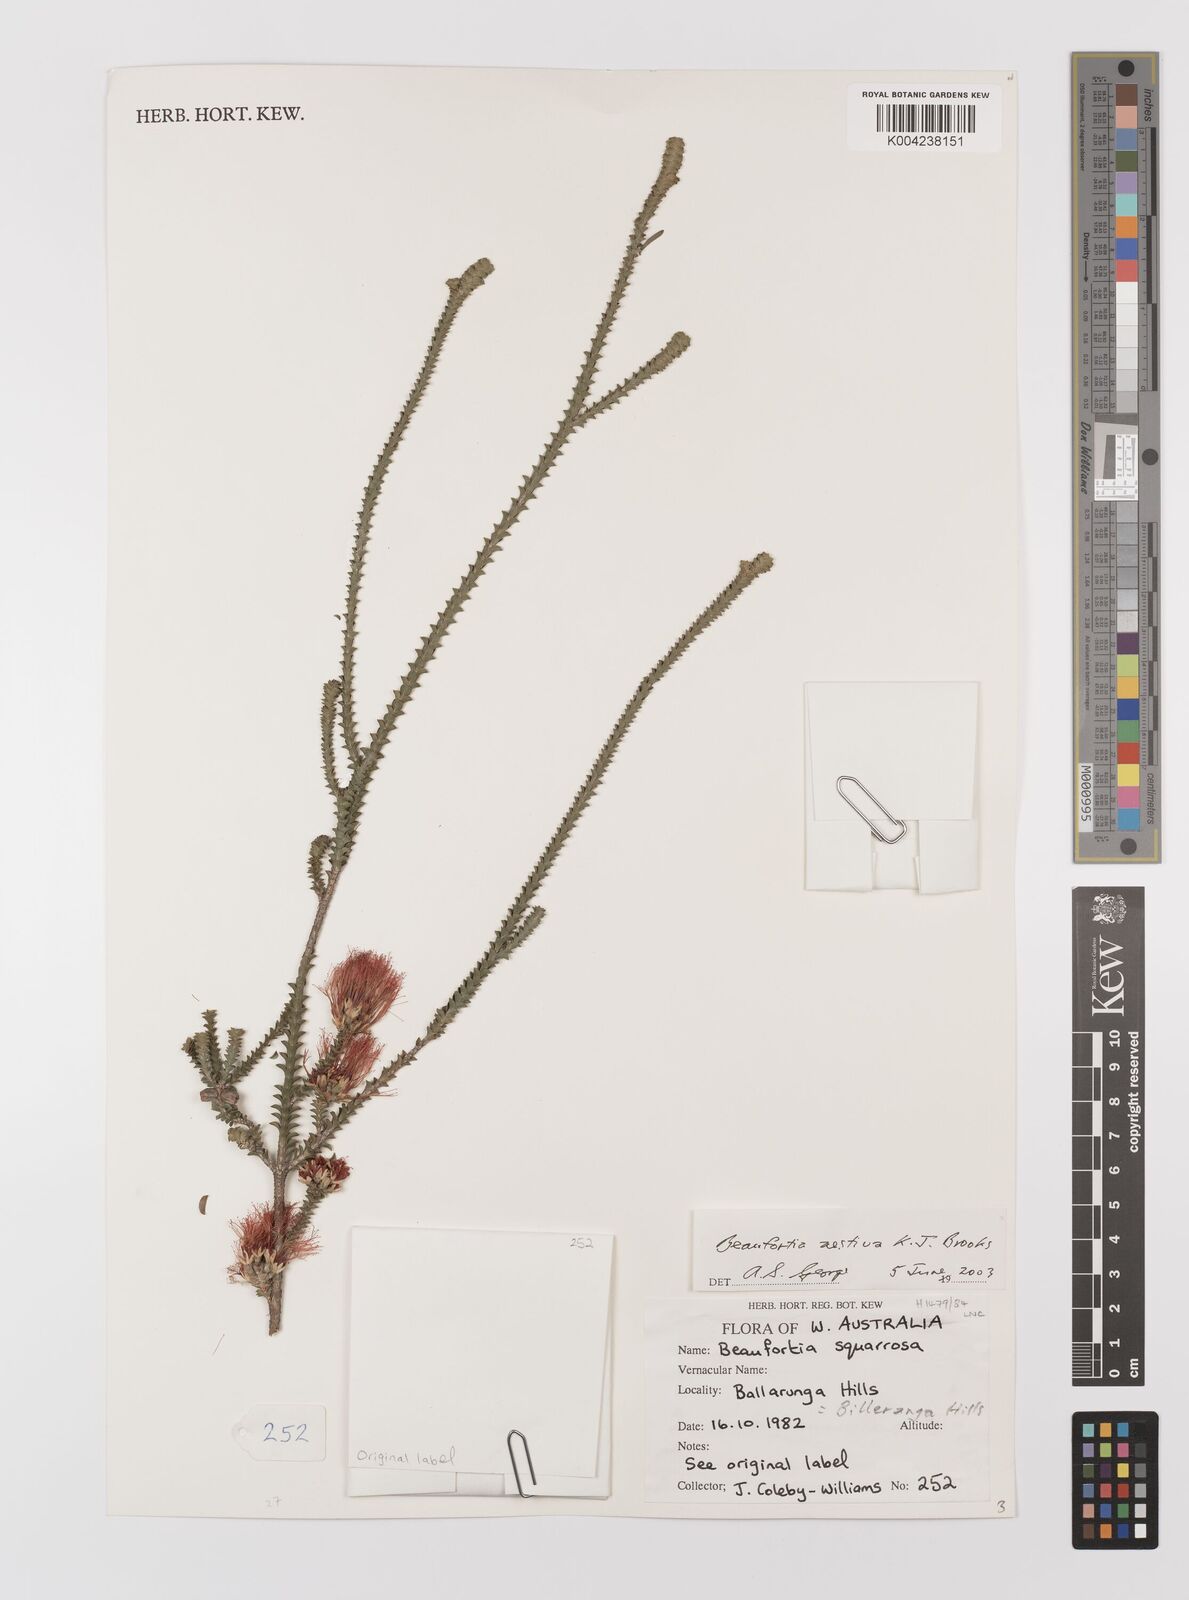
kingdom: Plantae
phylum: Tracheophyta
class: Magnoliopsida
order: Myrtales
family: Myrtaceae
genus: Melaleuca
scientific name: Melaleuca aestiva
